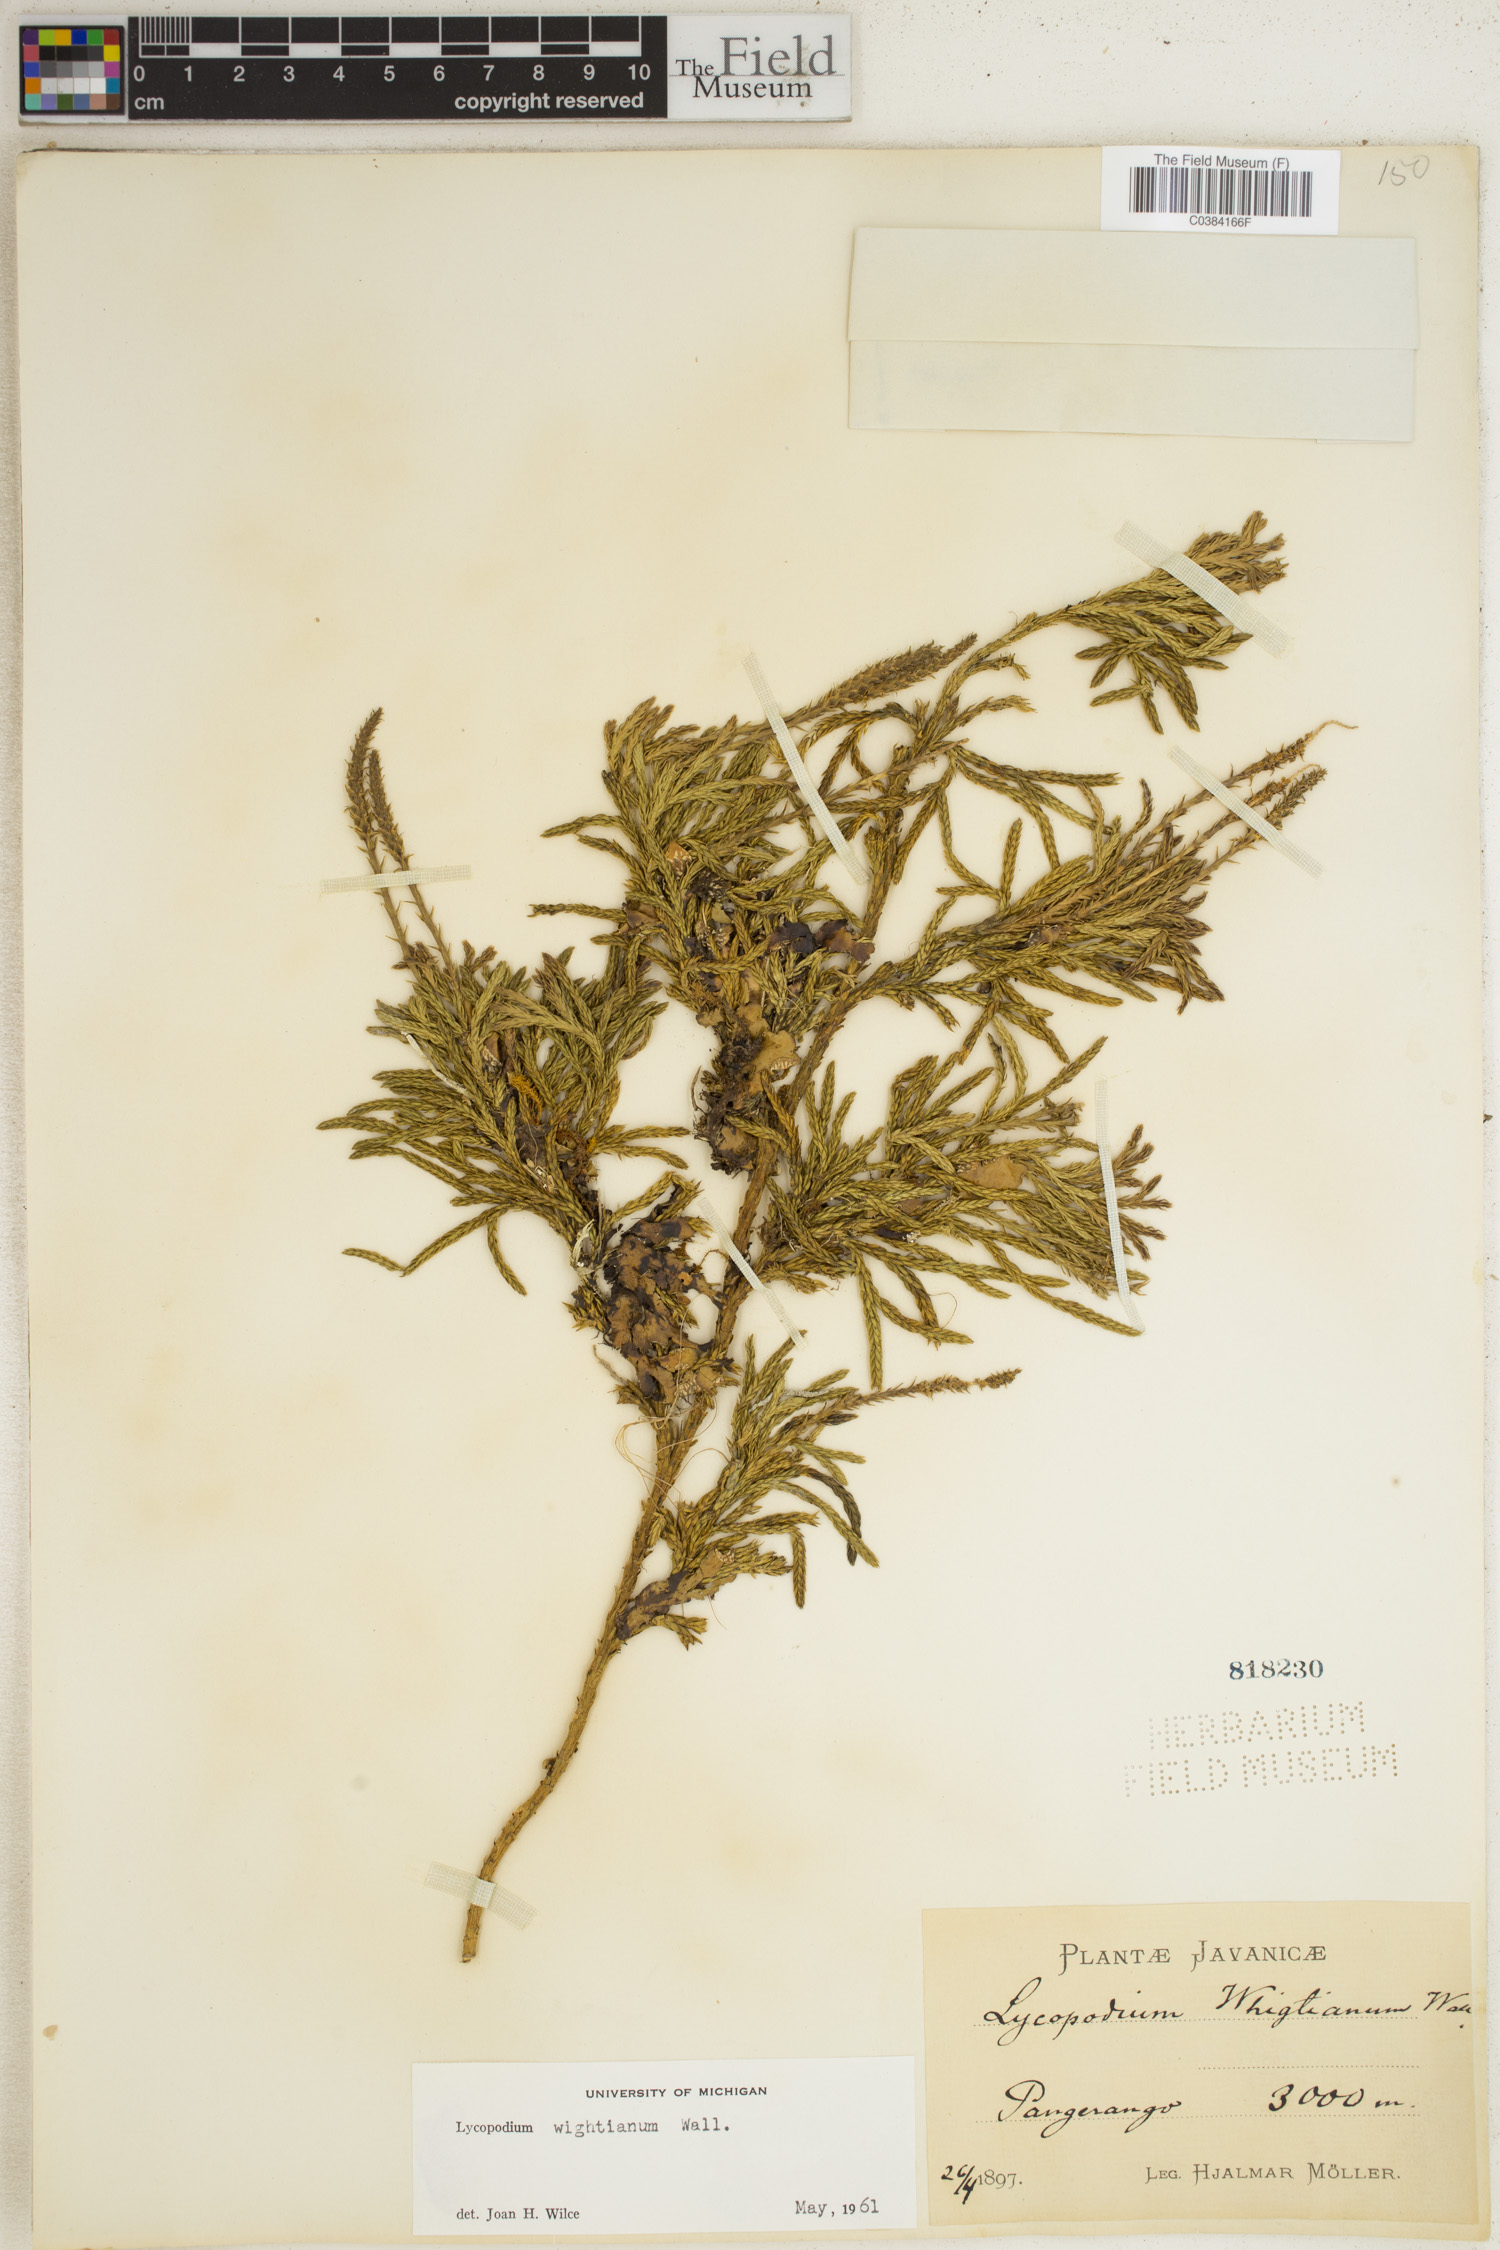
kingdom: Plantae
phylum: Tracheophyta
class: Lycopodiopsida
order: Lycopodiales
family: Lycopodiaceae
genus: Diphasiastrum
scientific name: Diphasiastrum wightianum
